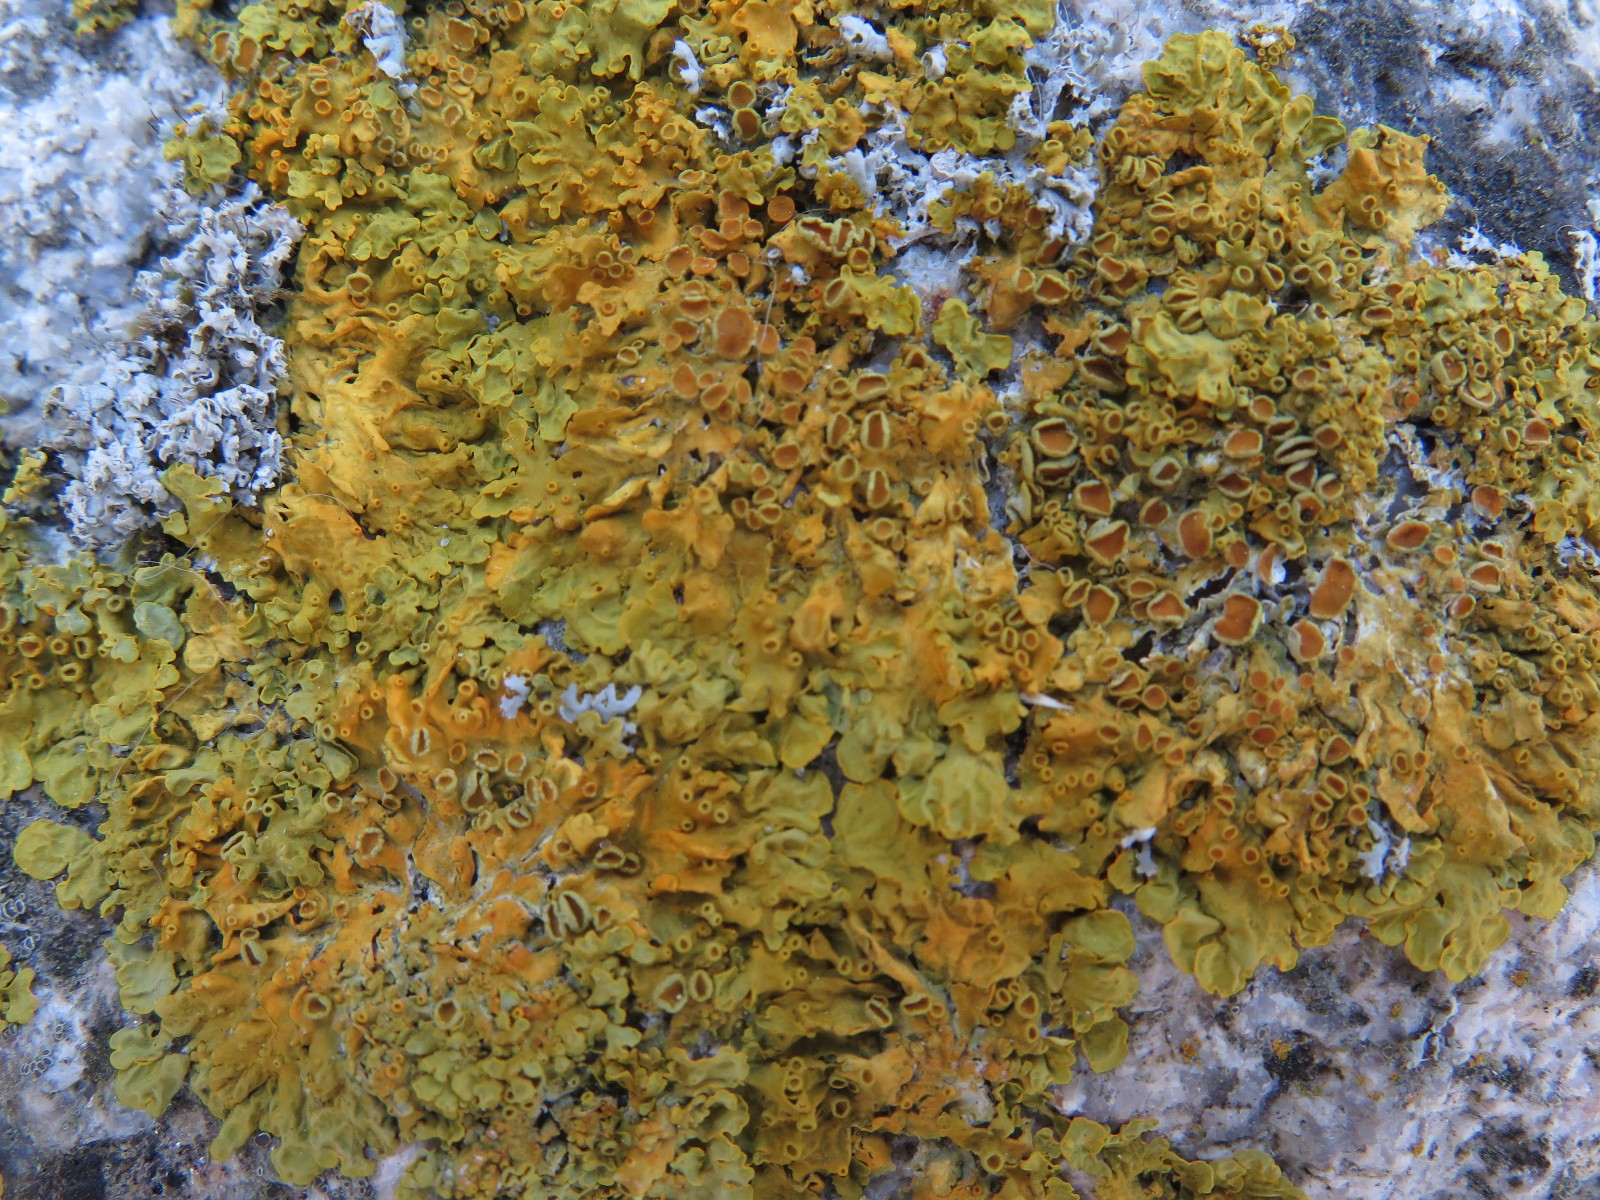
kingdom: Fungi
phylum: Ascomycota
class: Lecanoromycetes
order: Teloschistales
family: Teloschistaceae
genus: Xanthoria
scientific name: Xanthoria parietina
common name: almindelig væggelav
